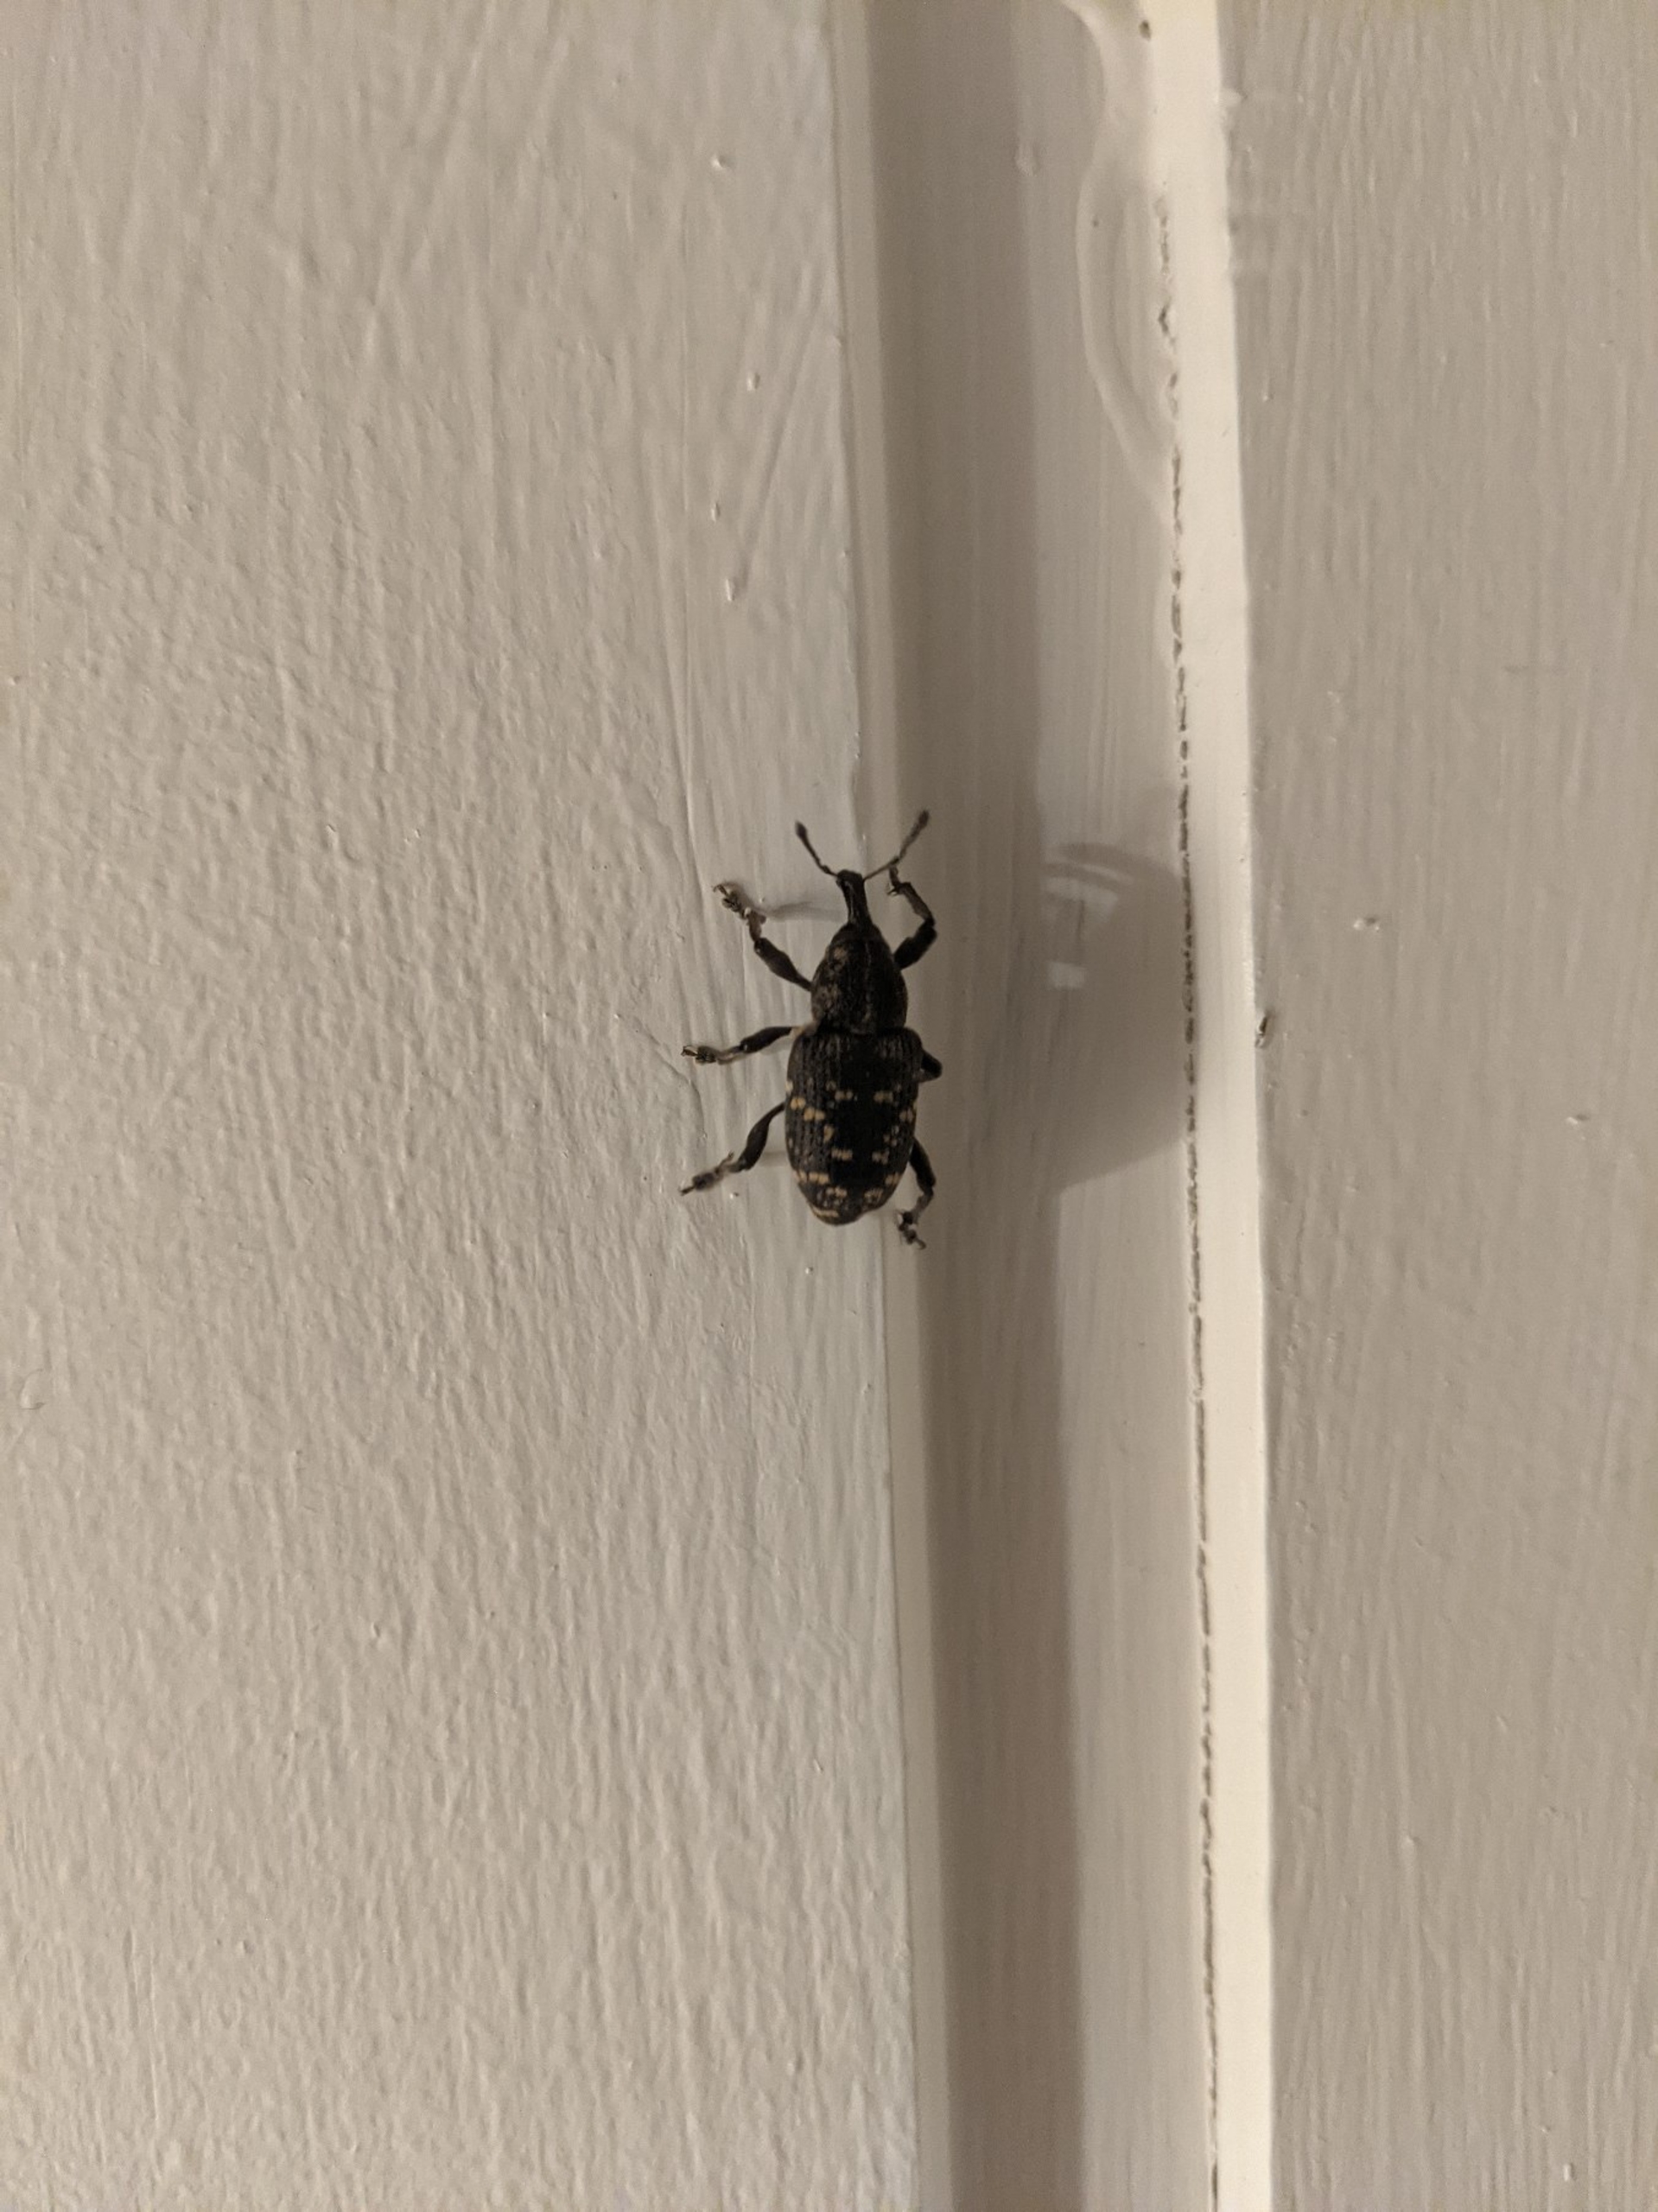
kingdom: Animalia
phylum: Arthropoda
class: Insecta
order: Coleoptera
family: Curculionidae
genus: Hylobius
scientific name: Hylobius abietis
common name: Stor nåletræsnudebille
